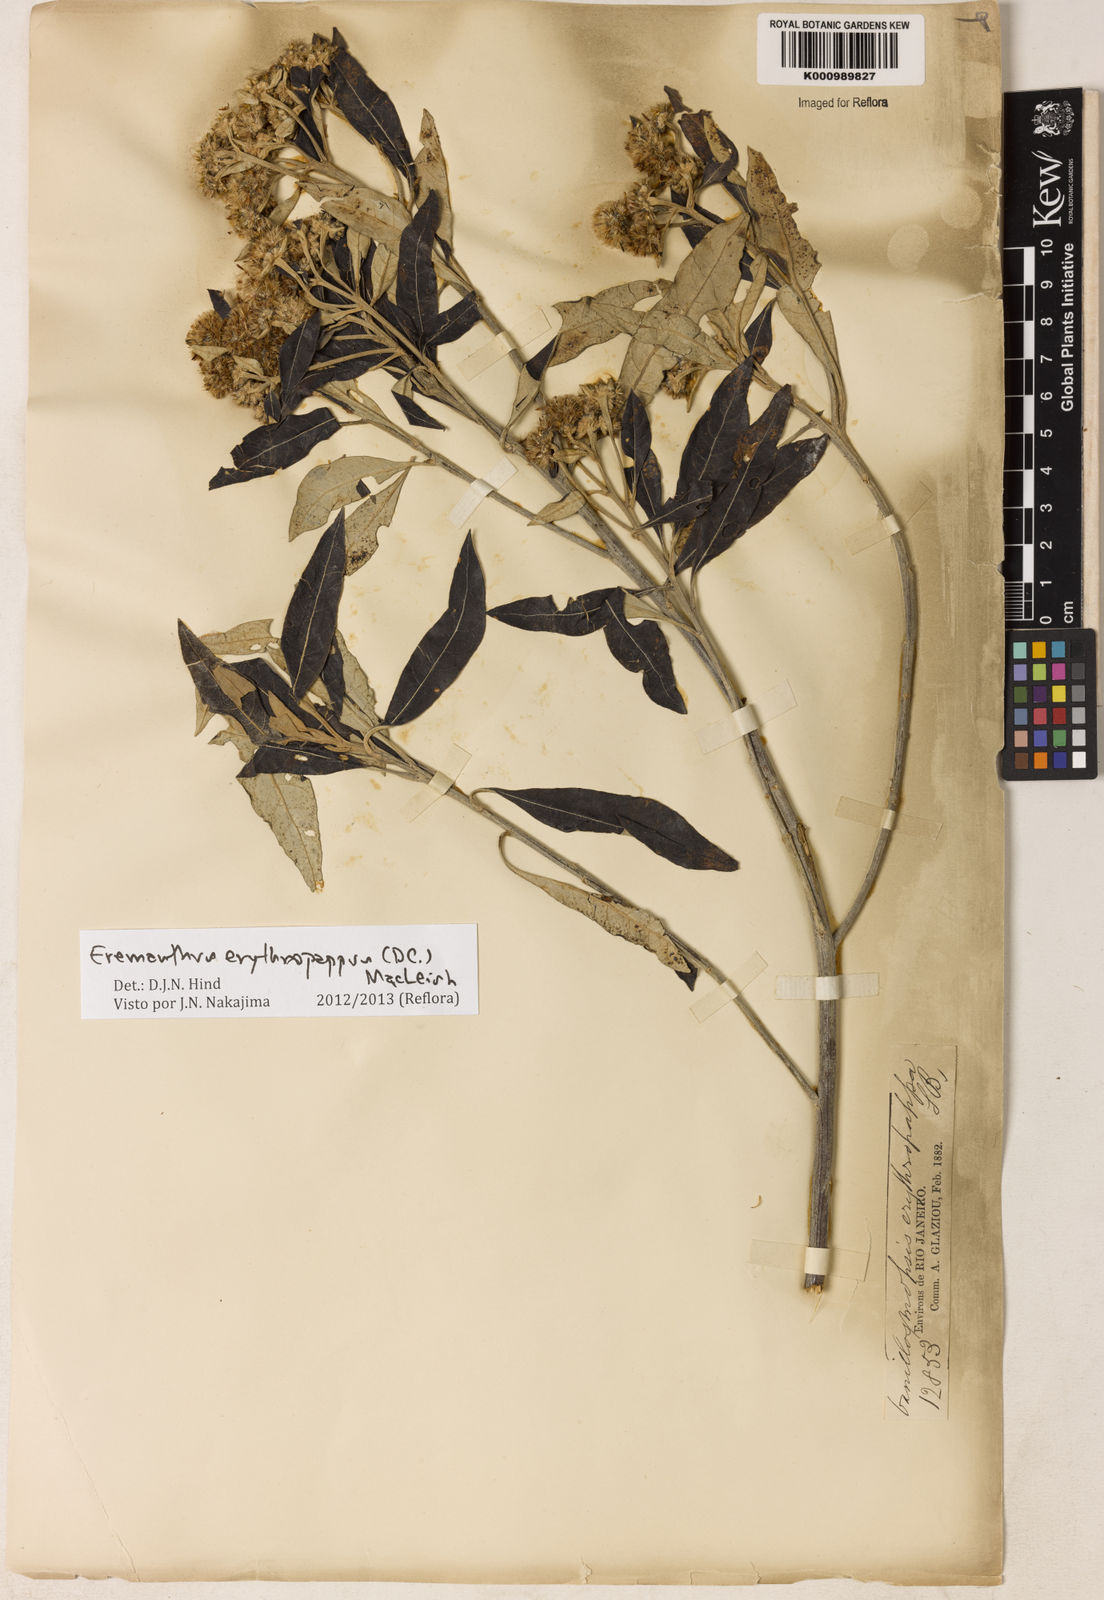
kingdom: Plantae
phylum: Tracheophyta
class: Magnoliopsida
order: Asterales
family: Asteraceae
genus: Eremanthus
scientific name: Eremanthus erythropappus
